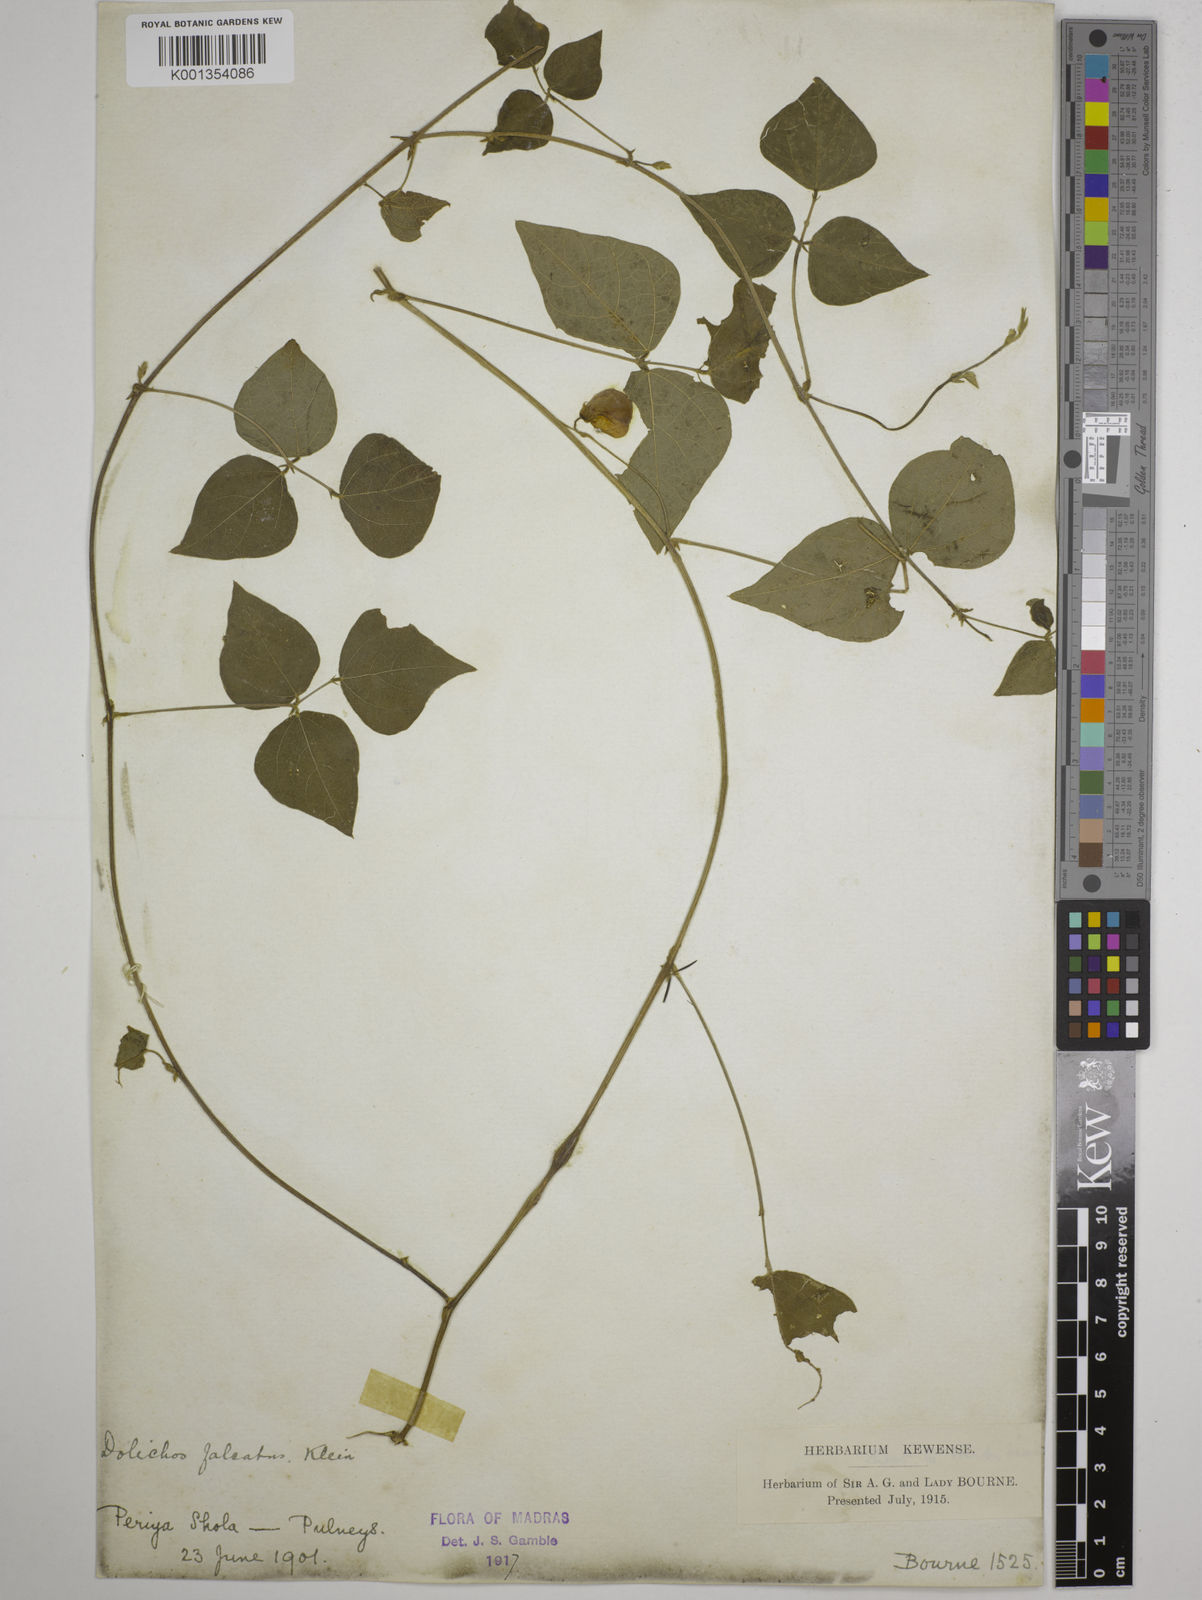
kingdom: Plantae
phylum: Tracheophyta
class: Magnoliopsida
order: Fabales
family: Fabaceae
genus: Dolichos
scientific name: Dolichos
